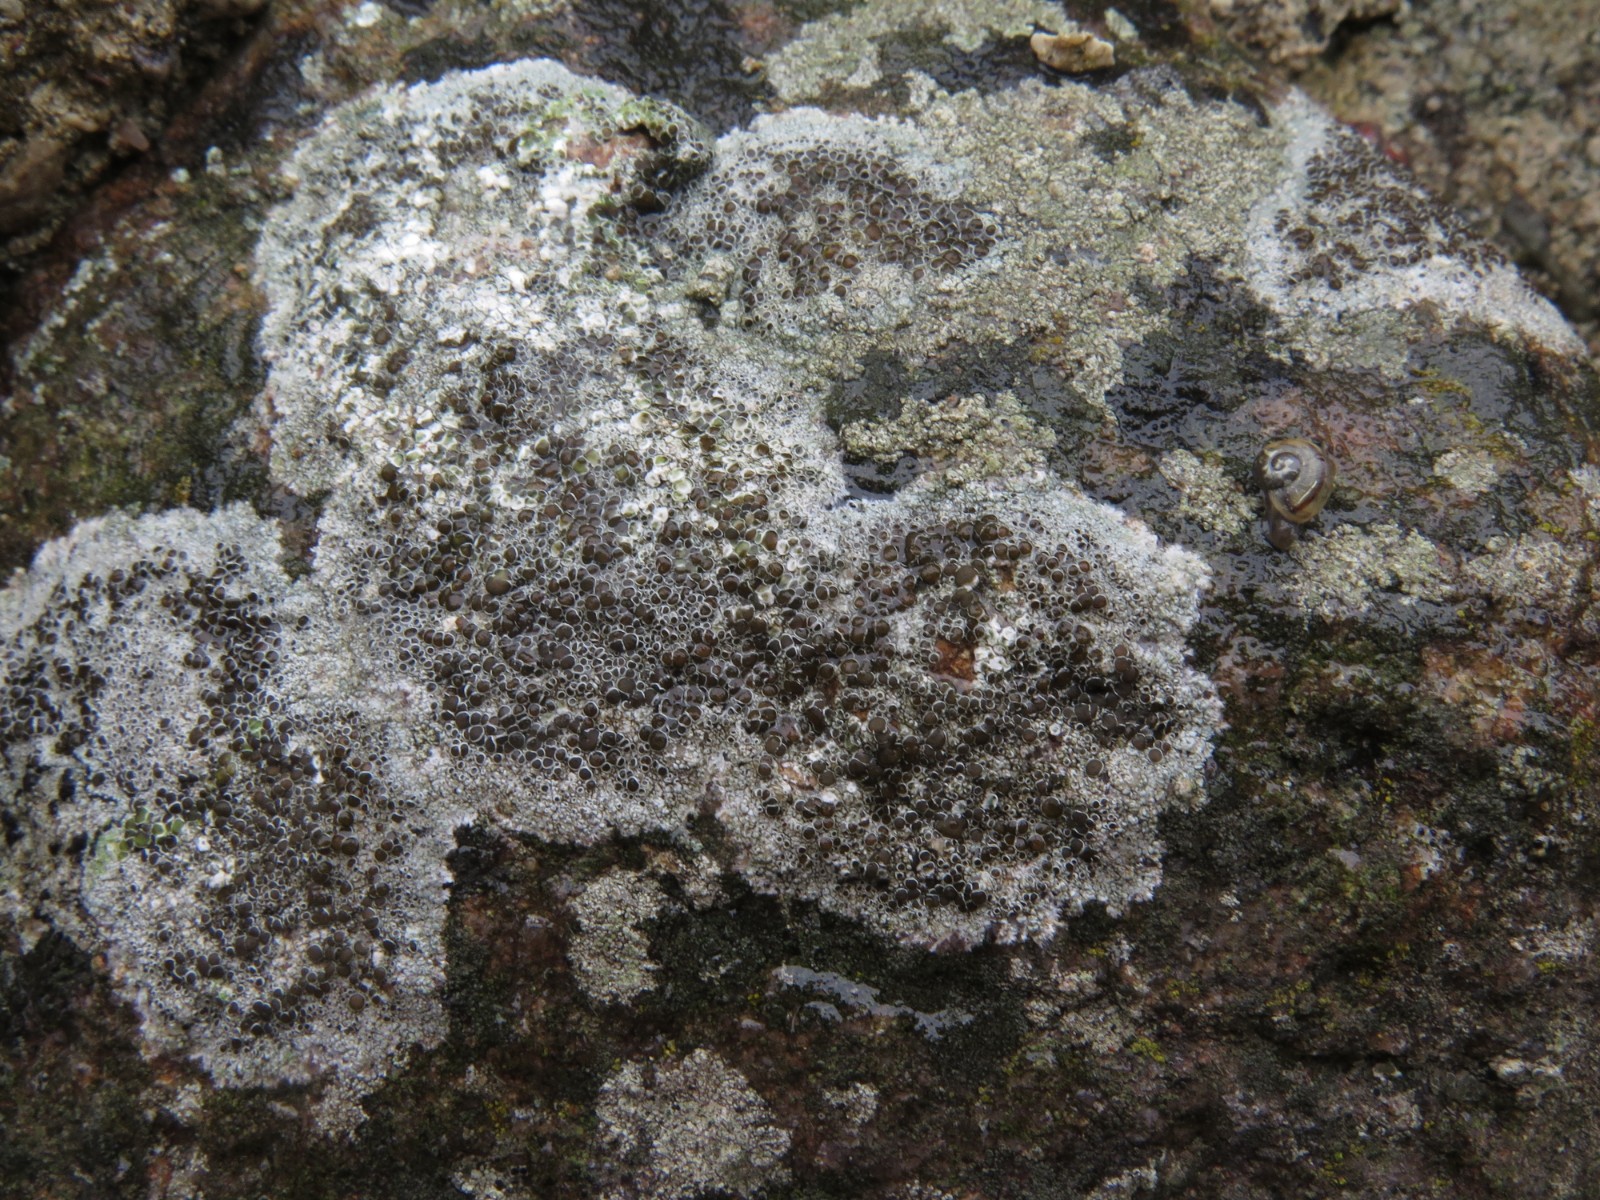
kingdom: Fungi
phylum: Ascomycota
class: Lecanoromycetes
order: Lecanorales
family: Lecanoraceae
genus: Lecanora
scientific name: Lecanora campestris
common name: mur-kantskivelav
